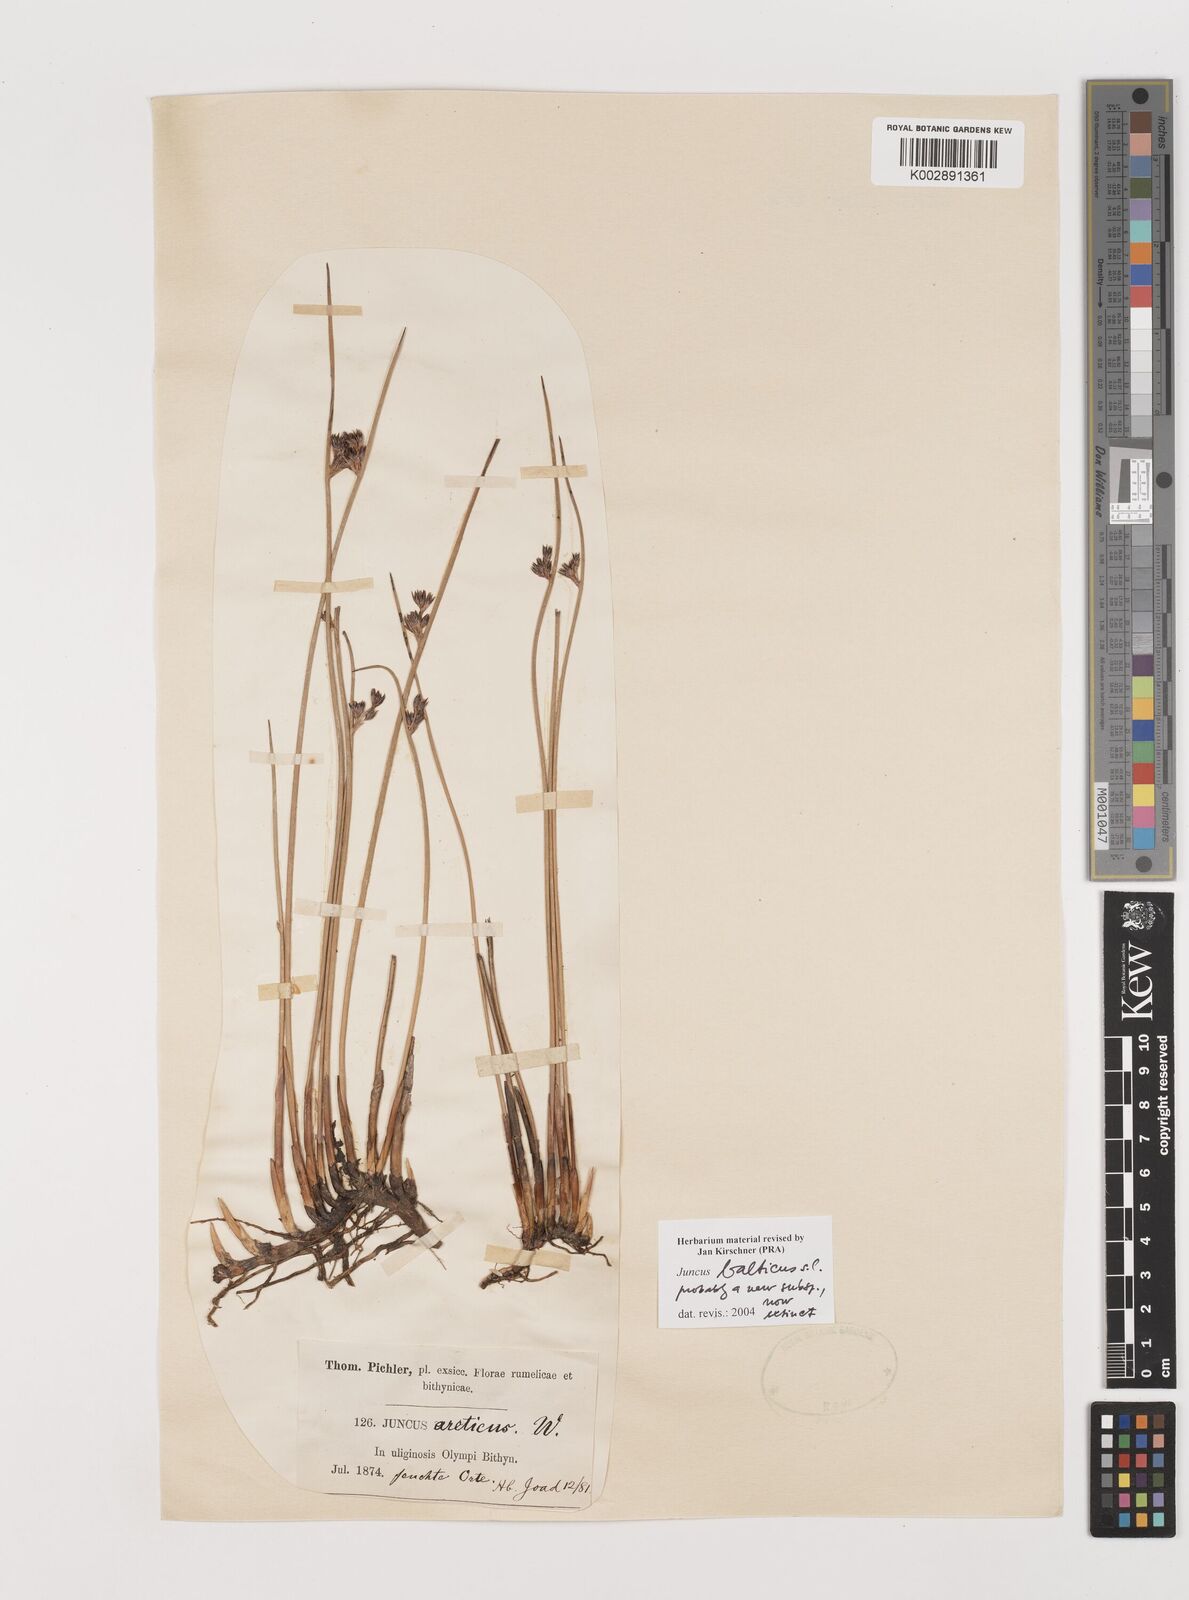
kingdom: Plantae
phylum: Tracheophyta
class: Liliopsida
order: Poales
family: Juncaceae
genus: Juncus
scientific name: Juncus balticus
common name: Baltic rush
